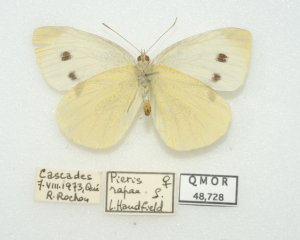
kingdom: Animalia
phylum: Arthropoda
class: Insecta
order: Lepidoptera
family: Pieridae
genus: Pieris
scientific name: Pieris rapae
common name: Cabbage White
